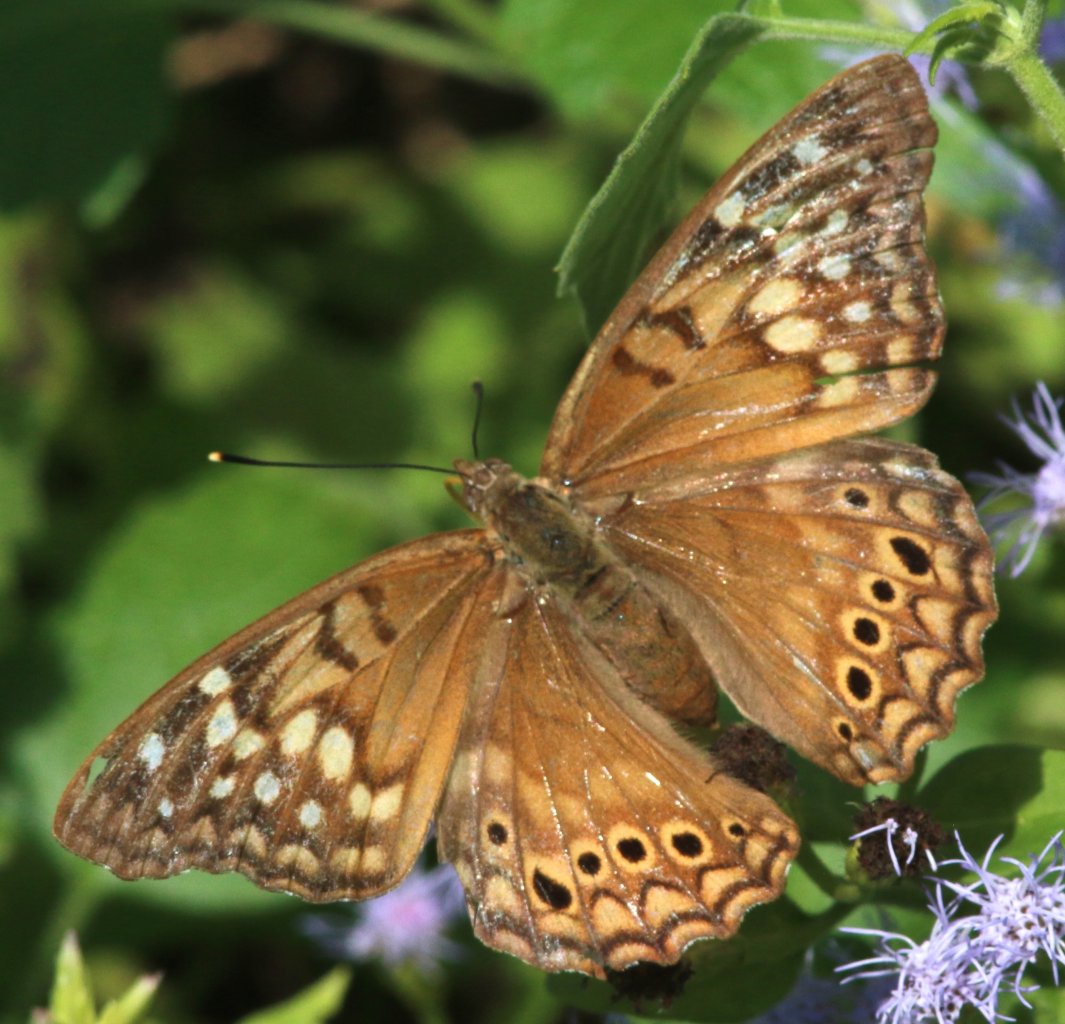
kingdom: Animalia
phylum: Arthropoda
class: Insecta
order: Lepidoptera
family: Nymphalidae
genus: Asterocampa
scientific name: Asterocampa clyton
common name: Tawny Emperor
